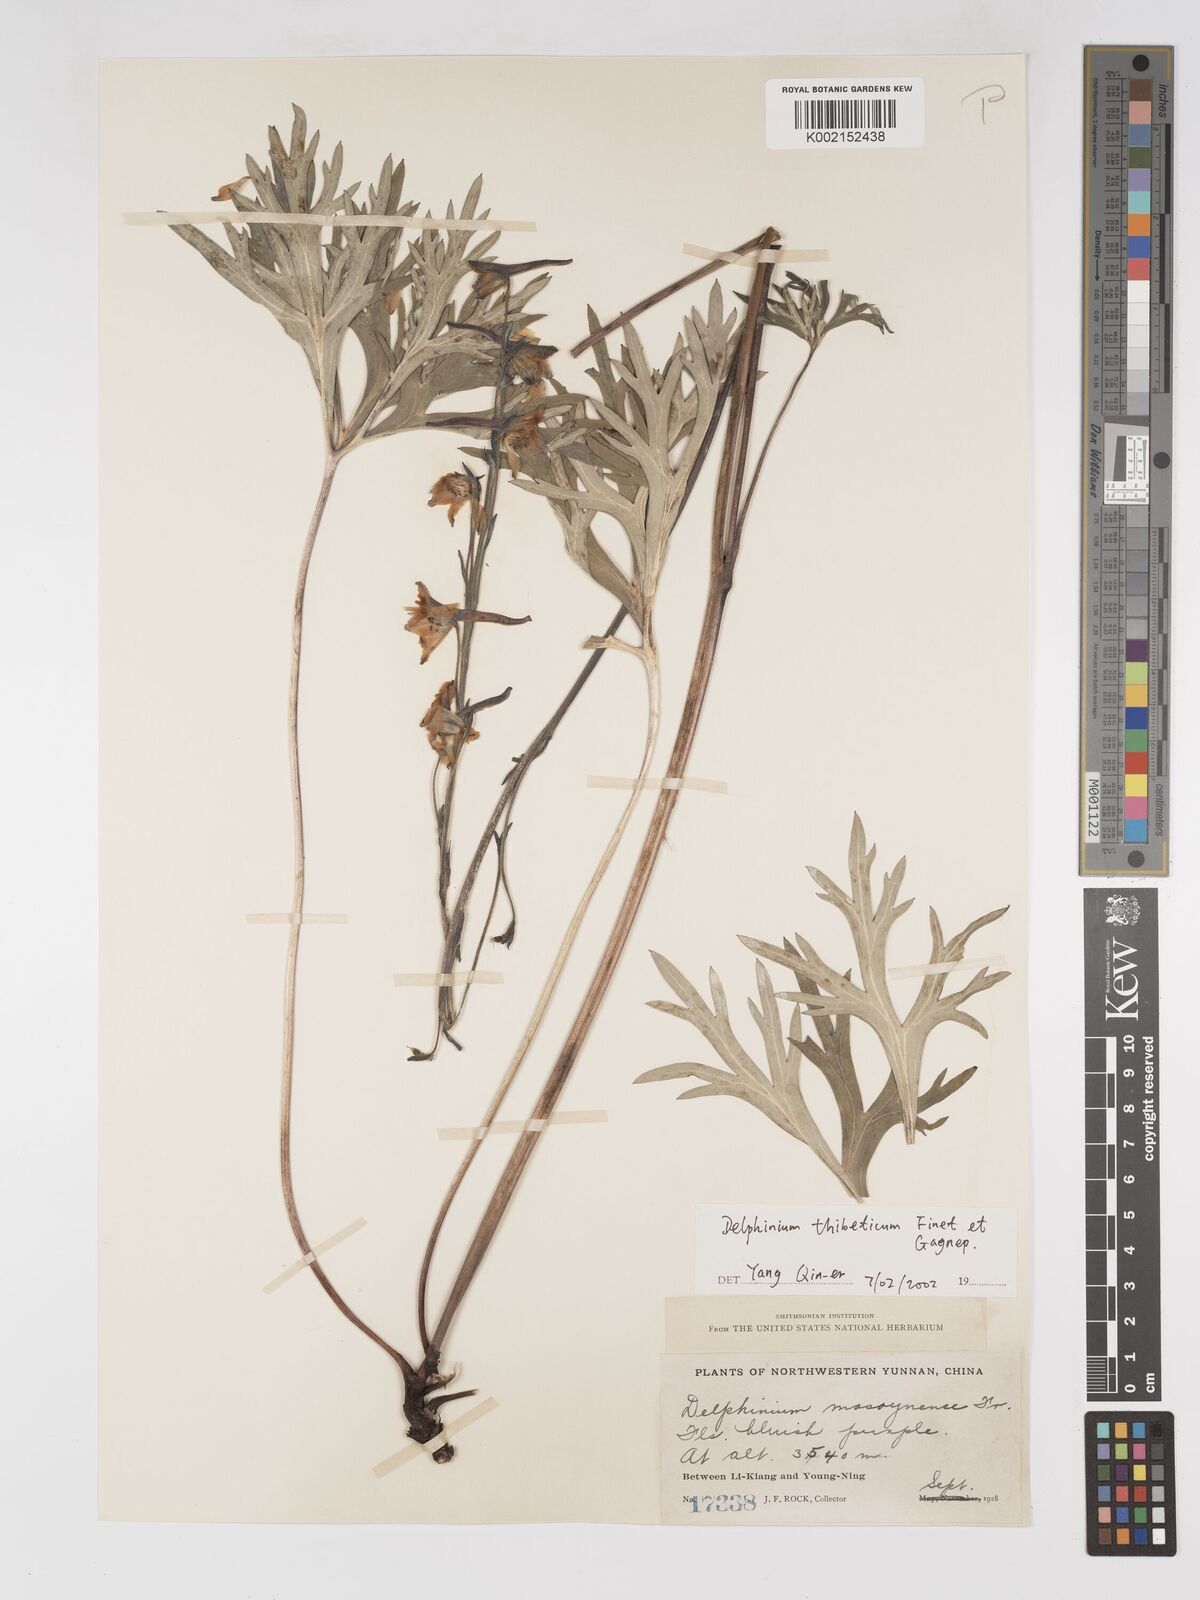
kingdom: Plantae
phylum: Tracheophyta
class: Magnoliopsida
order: Ranunculales
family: Ranunculaceae
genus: Delphinium
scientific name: Delphinium thibeticum
